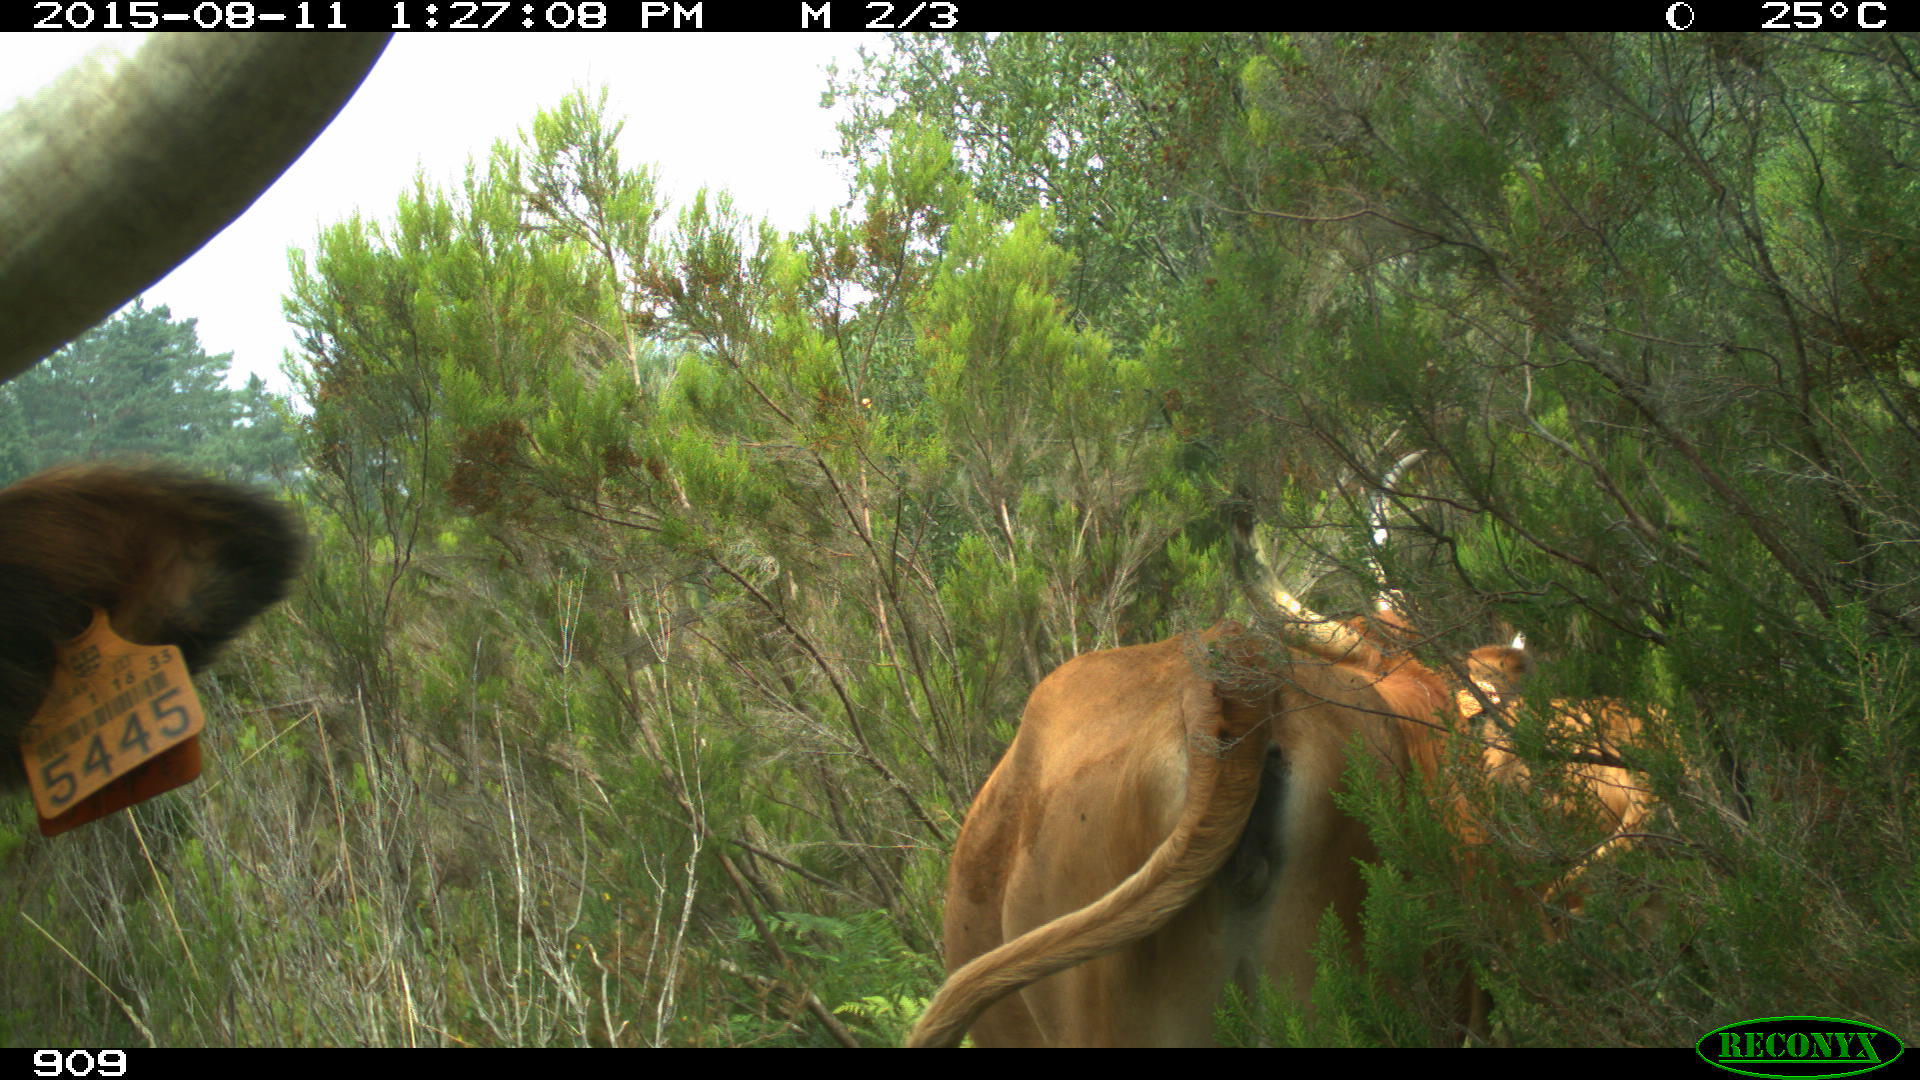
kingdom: Animalia
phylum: Chordata
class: Mammalia
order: Artiodactyla
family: Bovidae
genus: Bos
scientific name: Bos taurus
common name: Domesticated cattle
